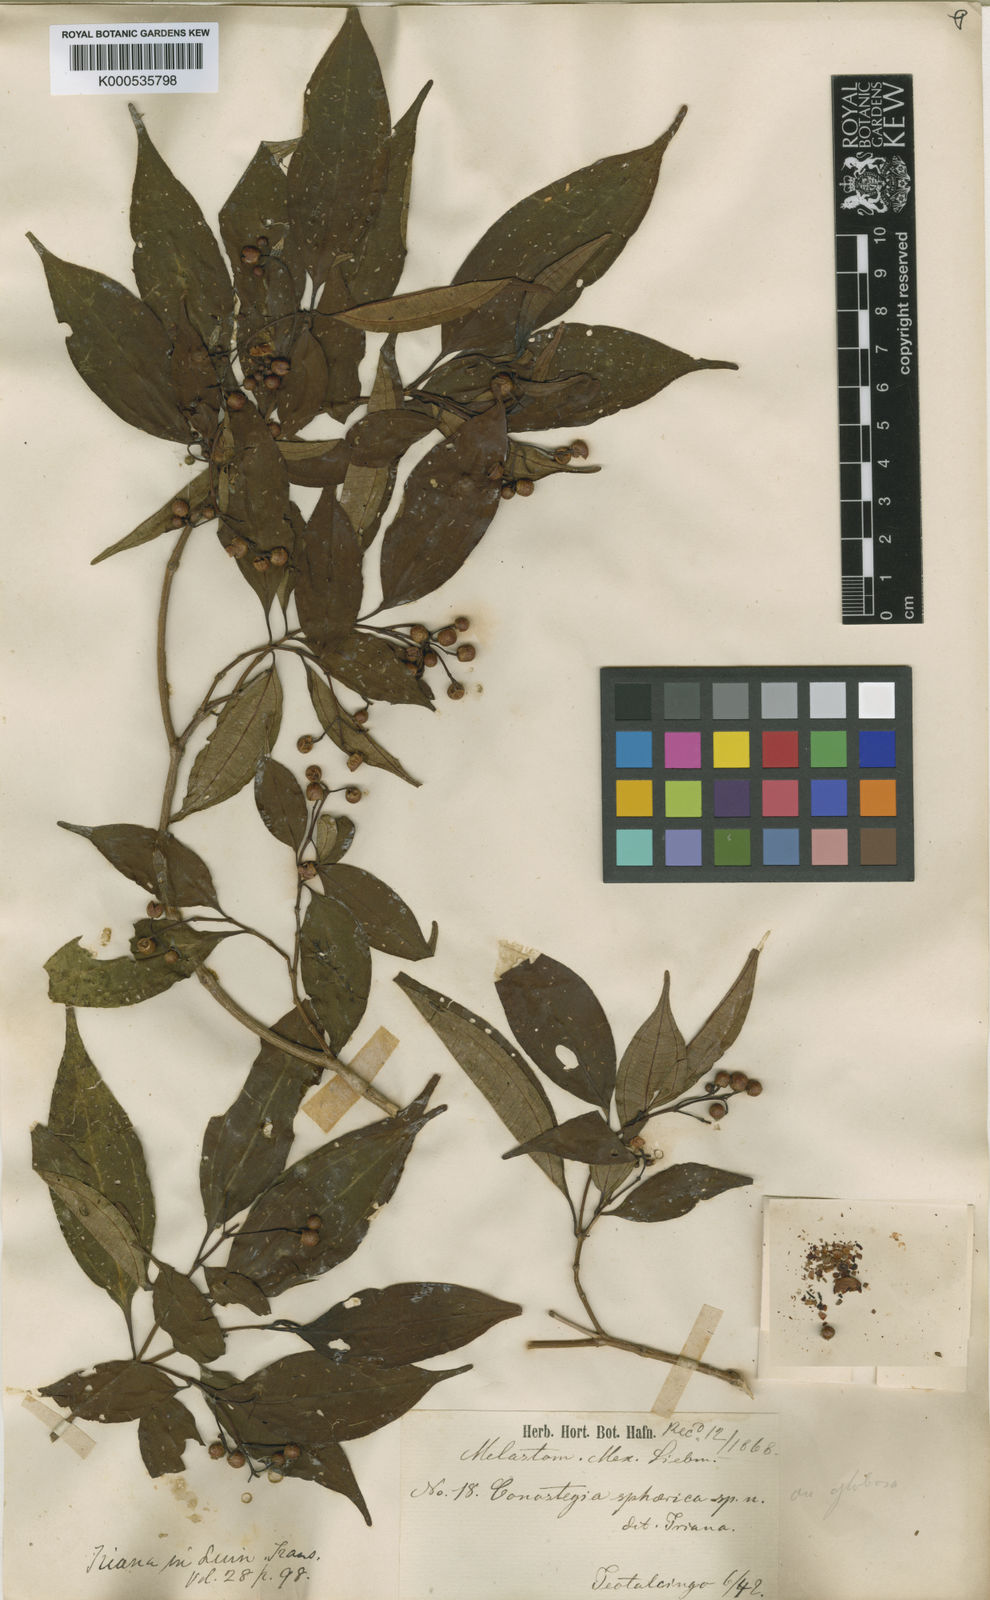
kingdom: Plantae
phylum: Tracheophyta
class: Magnoliopsida
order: Myrtales
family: Melastomataceae
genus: Miconia
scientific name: Miconia subhirsuta
